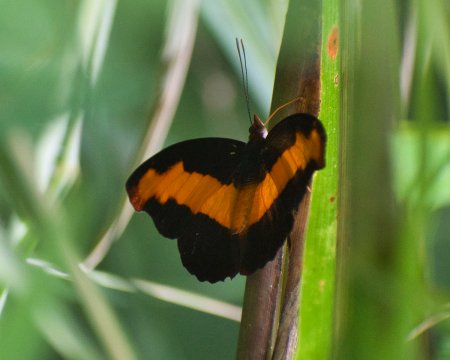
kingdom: Animalia
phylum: Arthropoda
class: Insecta
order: Lepidoptera
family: Nymphalidae
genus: Catonephele
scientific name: Catonephele mexicana
